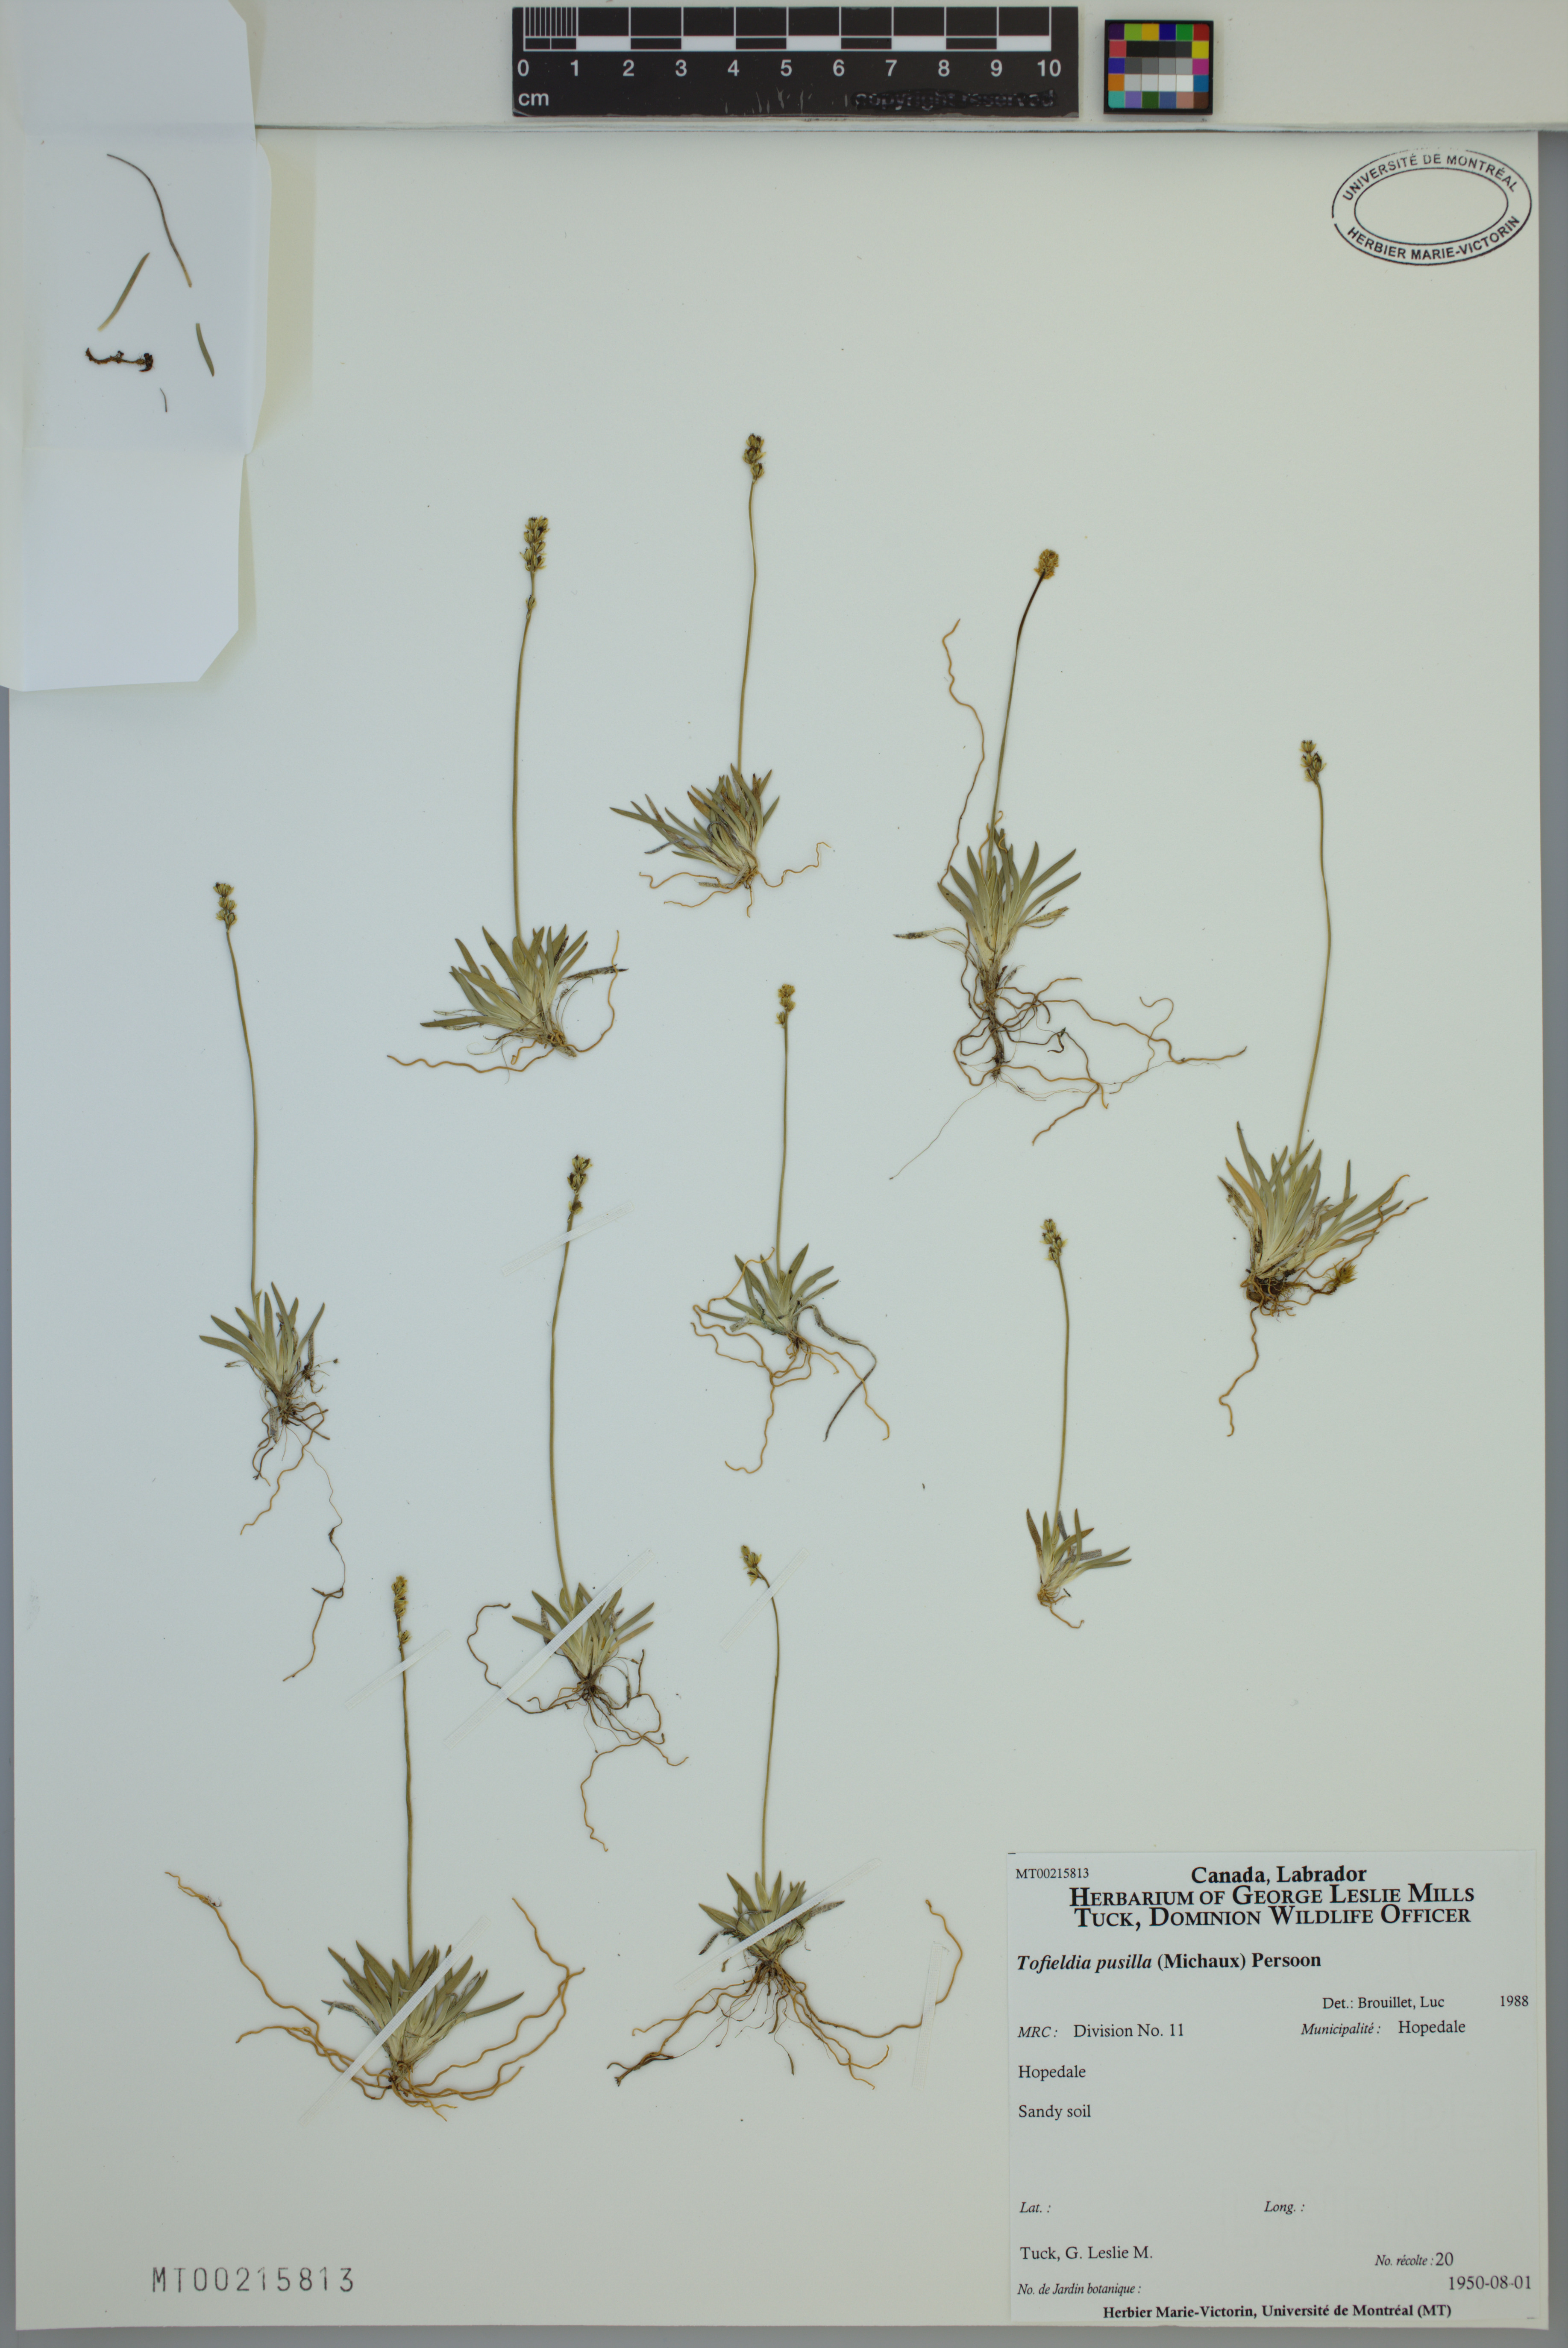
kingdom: Plantae
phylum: Tracheophyta
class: Liliopsida
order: Alismatales
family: Tofieldiaceae
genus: Tofieldia
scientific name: Tofieldia pusilla
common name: Scottish false asphodel
